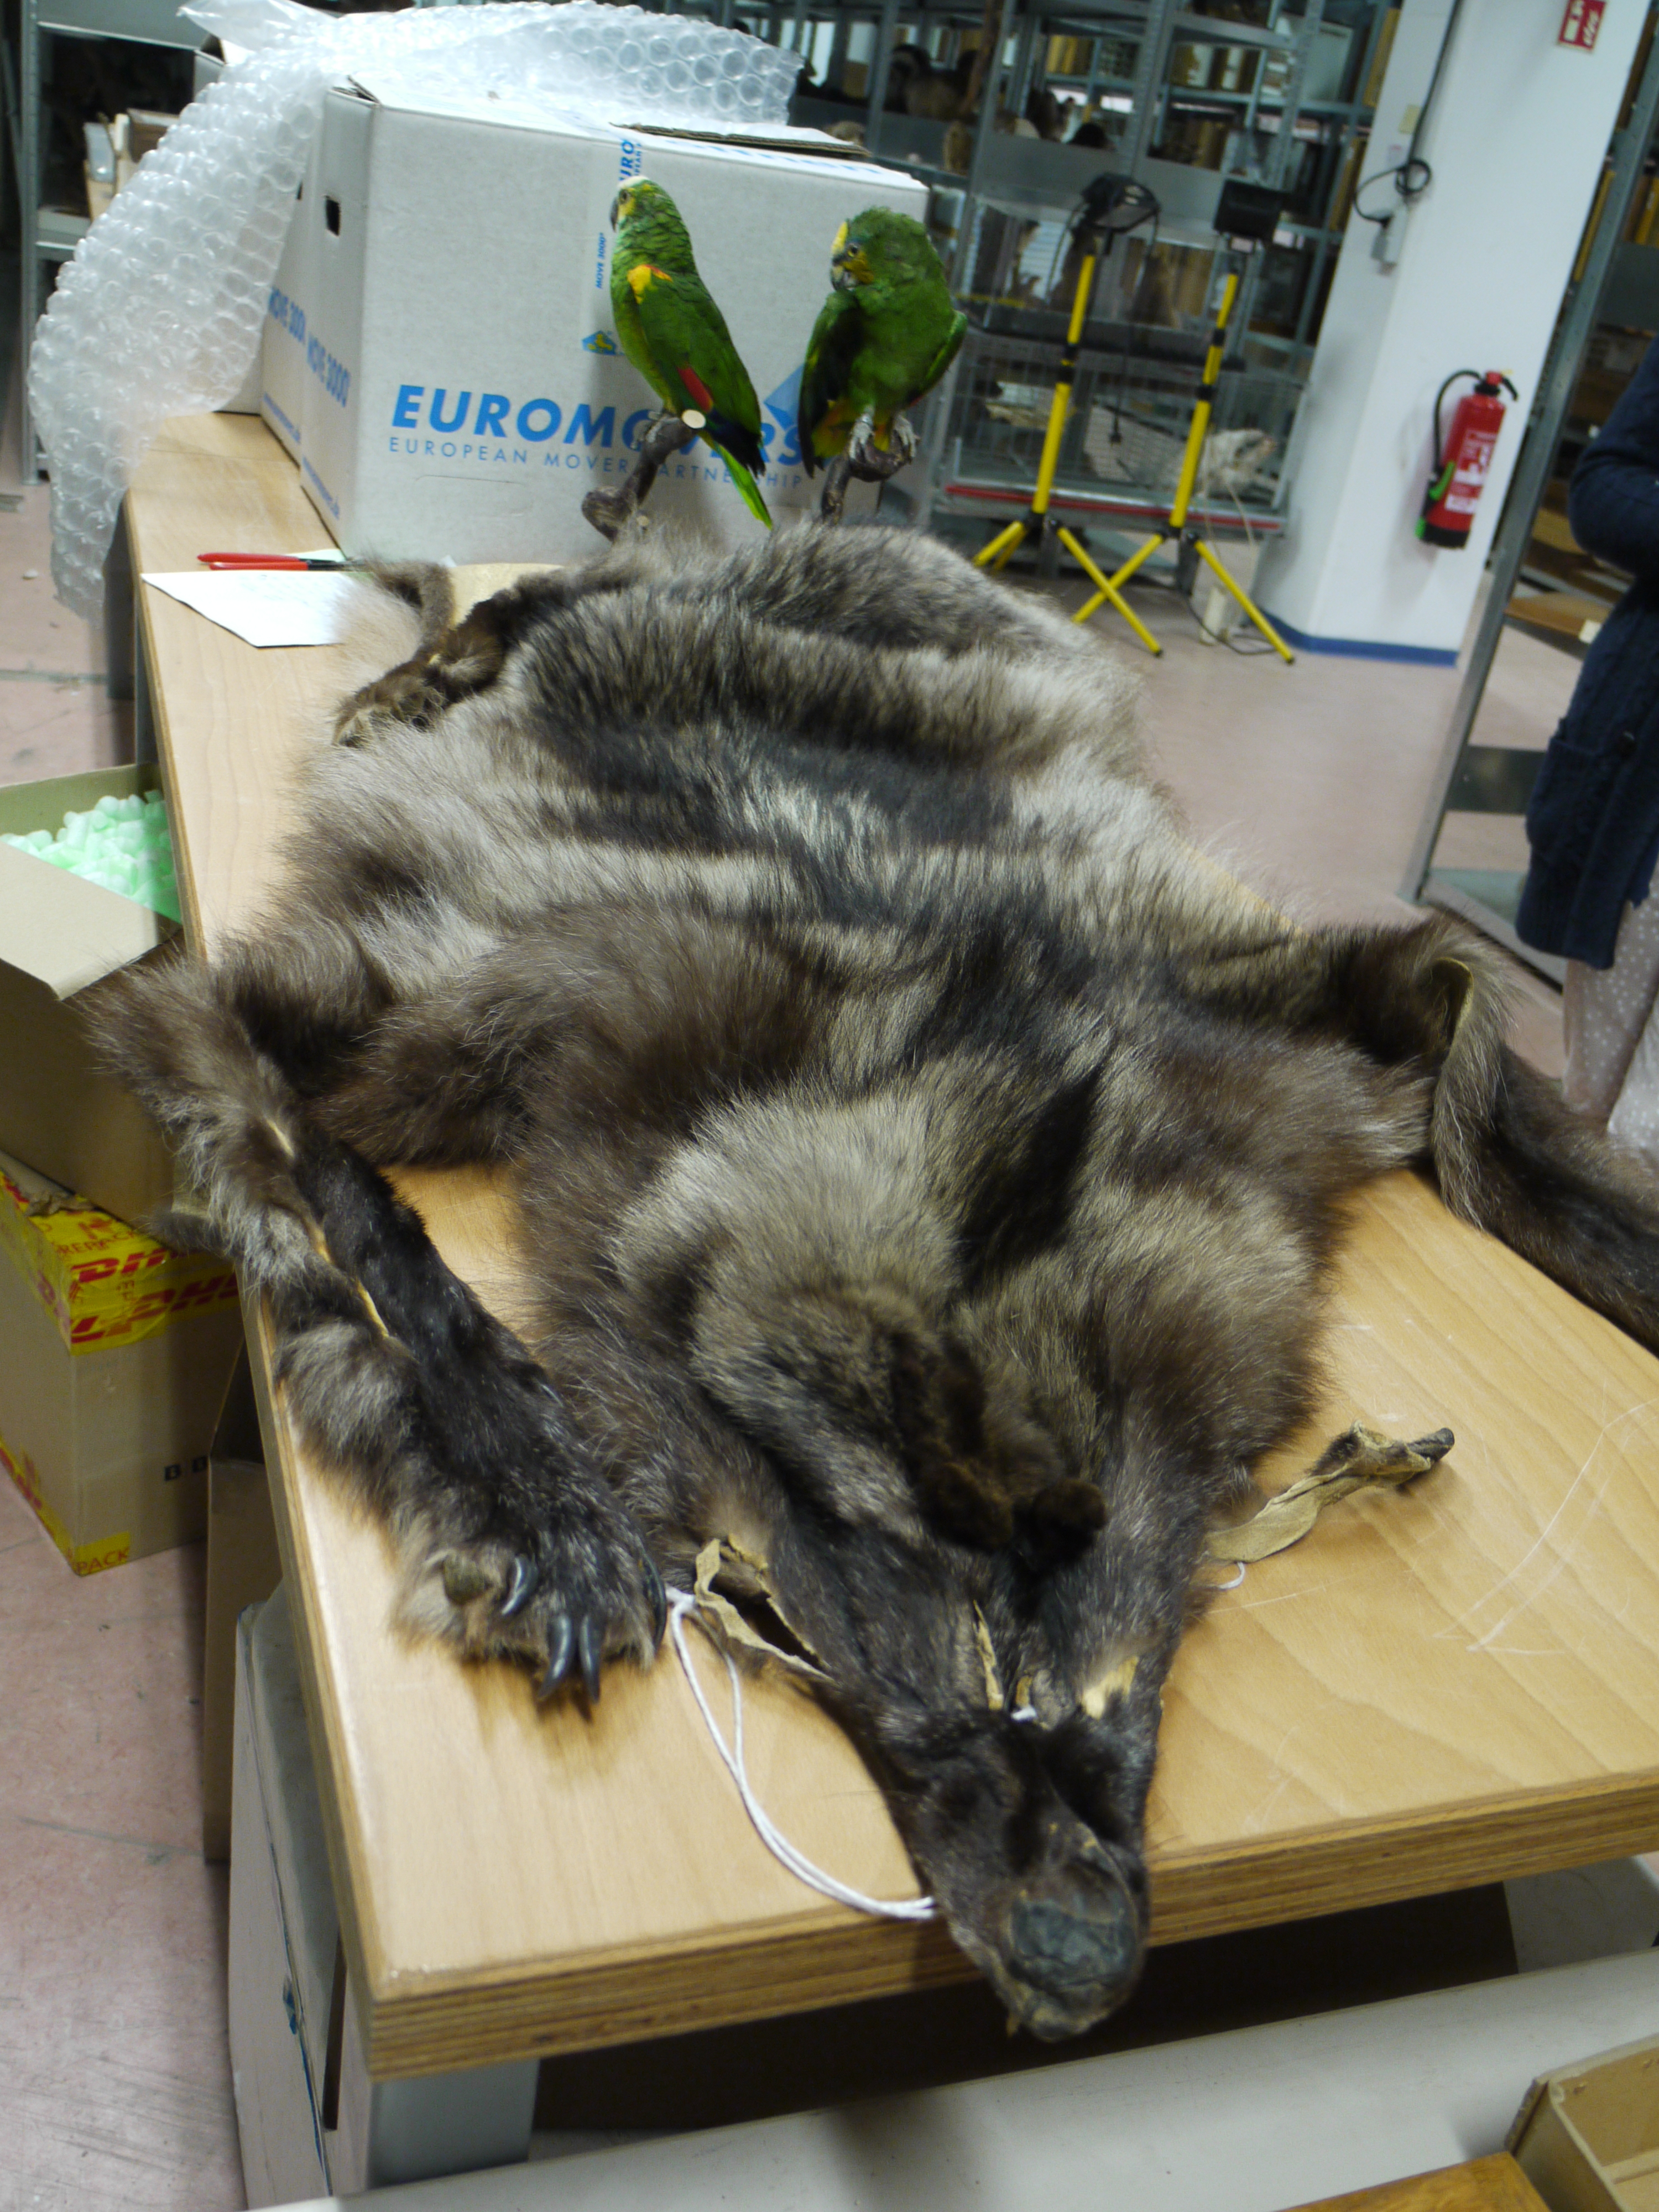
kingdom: Animalia
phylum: Chordata
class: Mammalia
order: Carnivora
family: Canidae
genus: Canis
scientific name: Canis lupus
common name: Gray wolf
